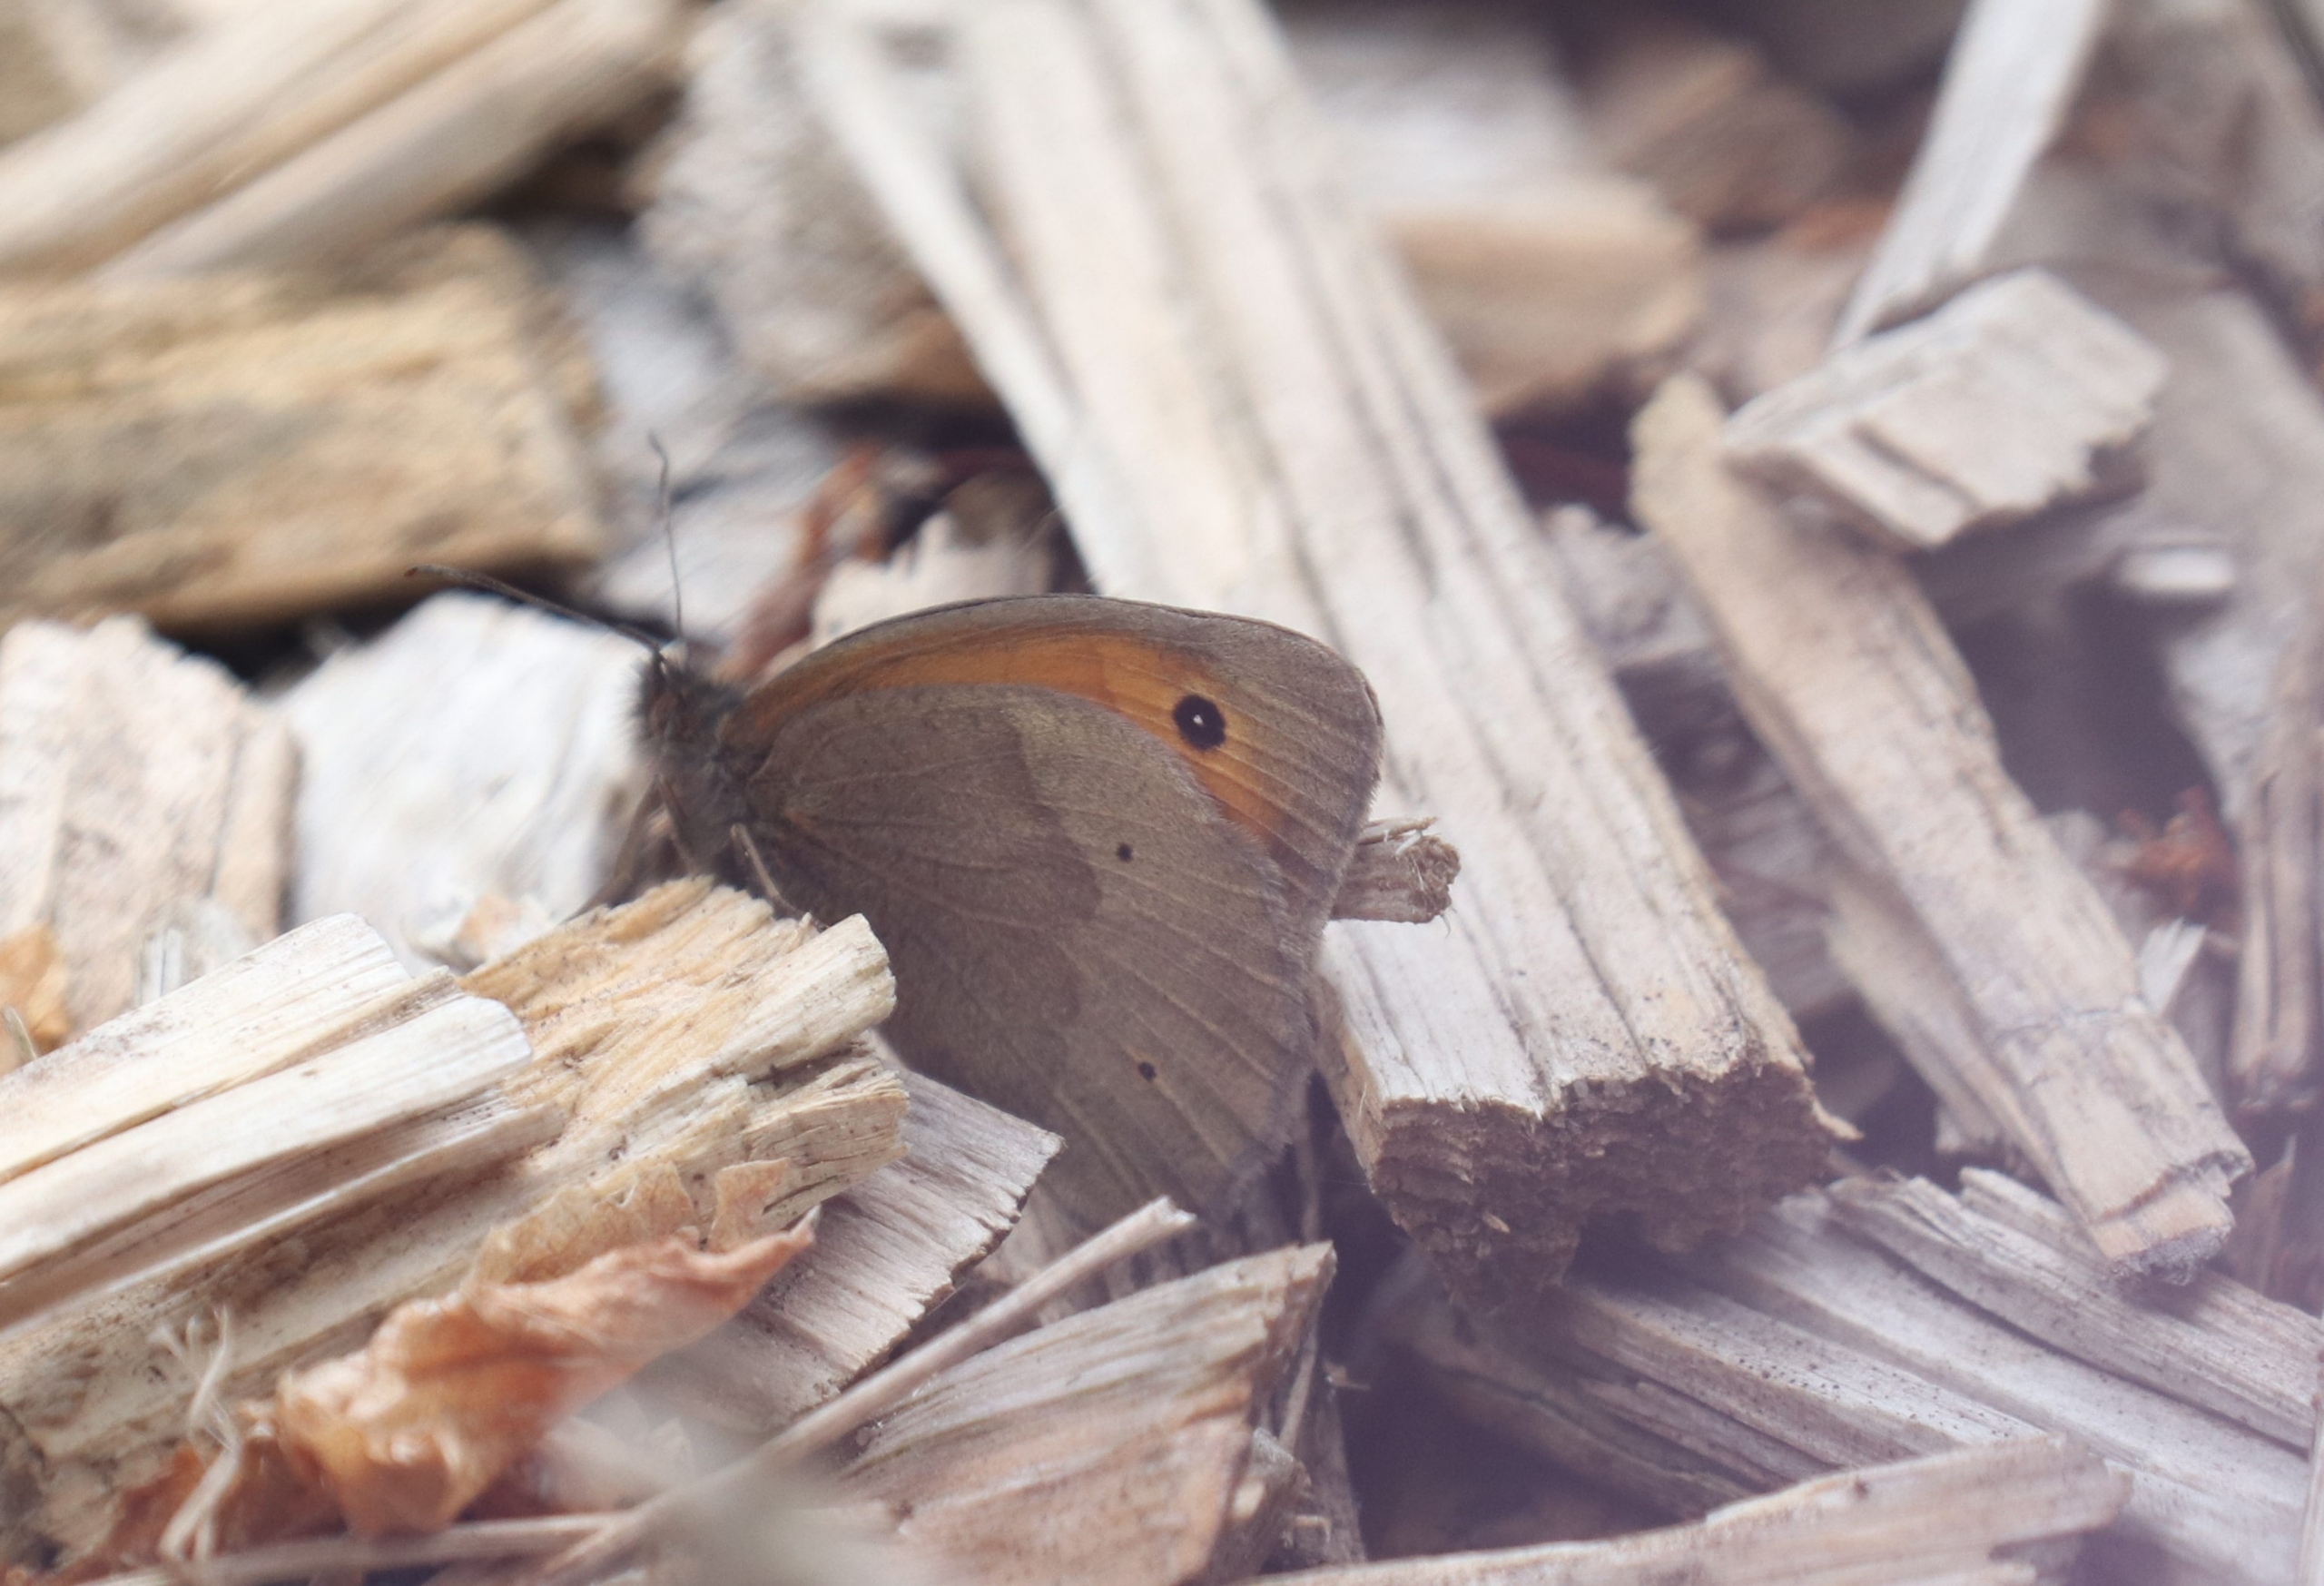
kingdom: Animalia
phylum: Arthropoda
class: Insecta
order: Lepidoptera
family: Nymphalidae
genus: Maniola
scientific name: Maniola jurtina
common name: Græsrandøje
